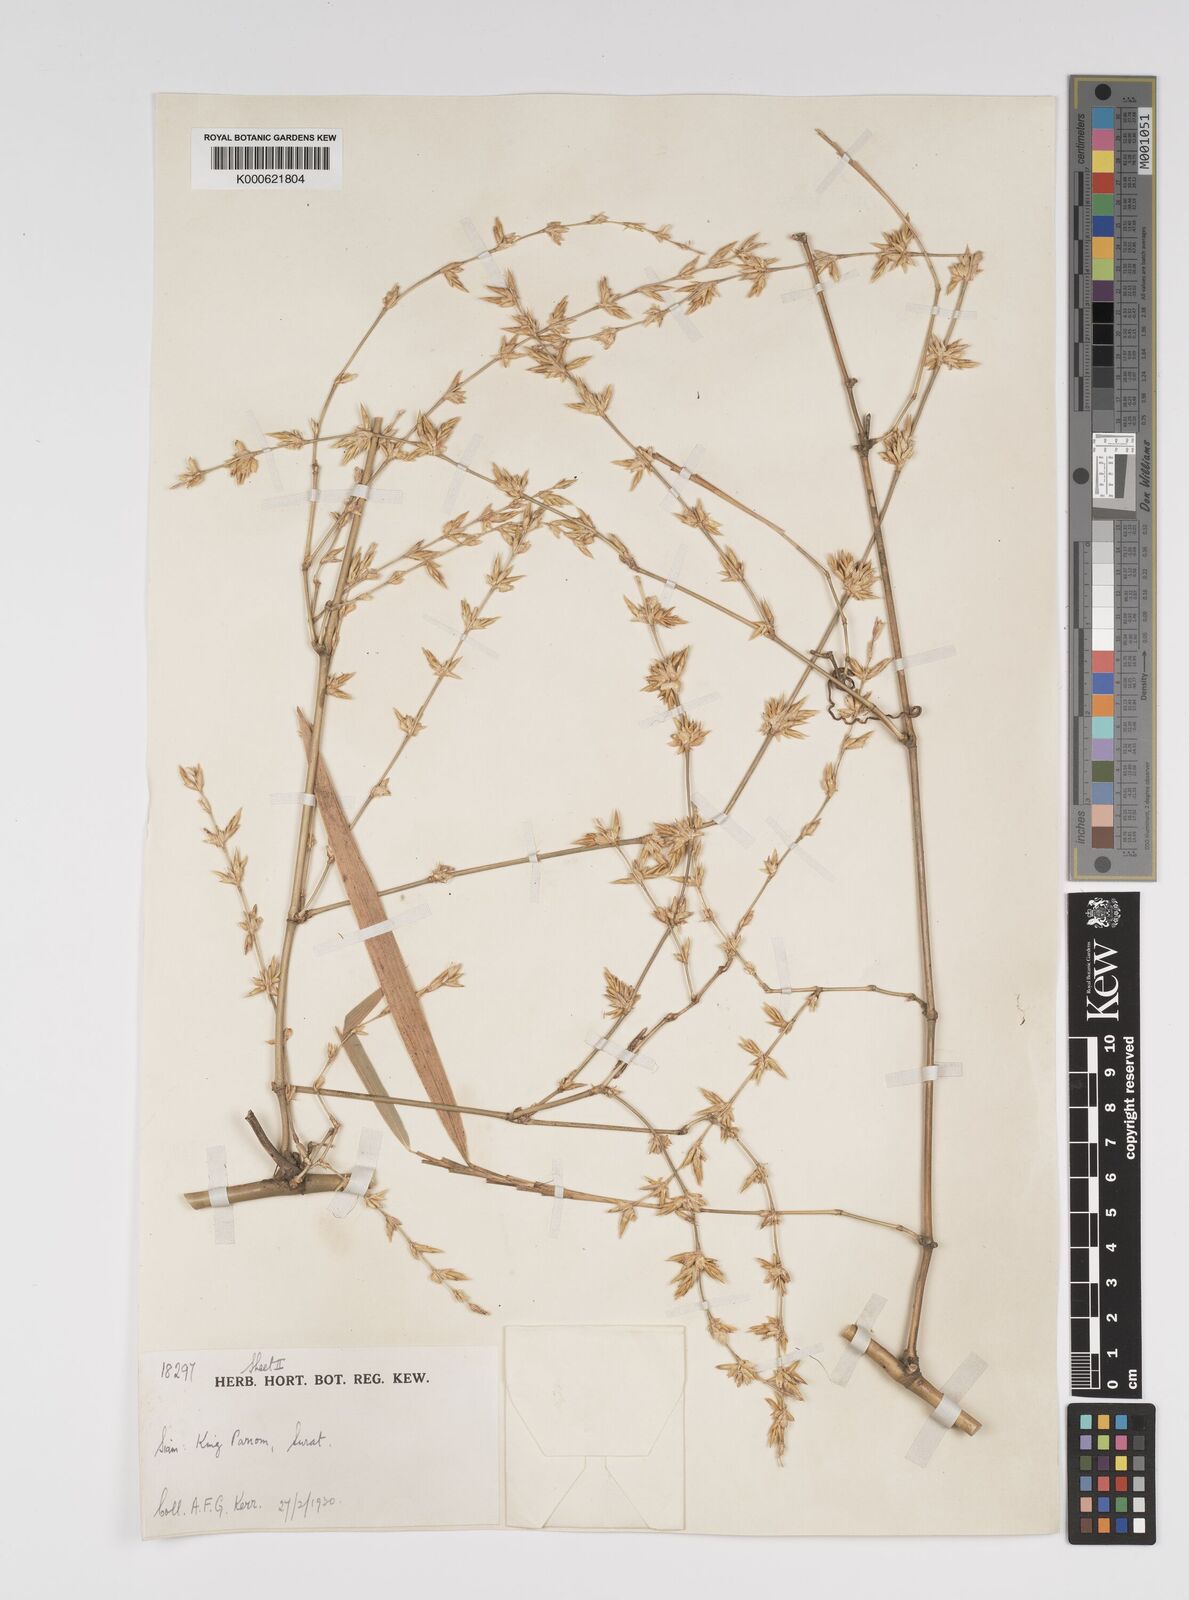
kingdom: Plantae
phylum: Tracheophyta
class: Liliopsida
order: Poales
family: Poaceae
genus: Bambusa
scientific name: Bambusa bambos
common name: Indian thorny bamboo
